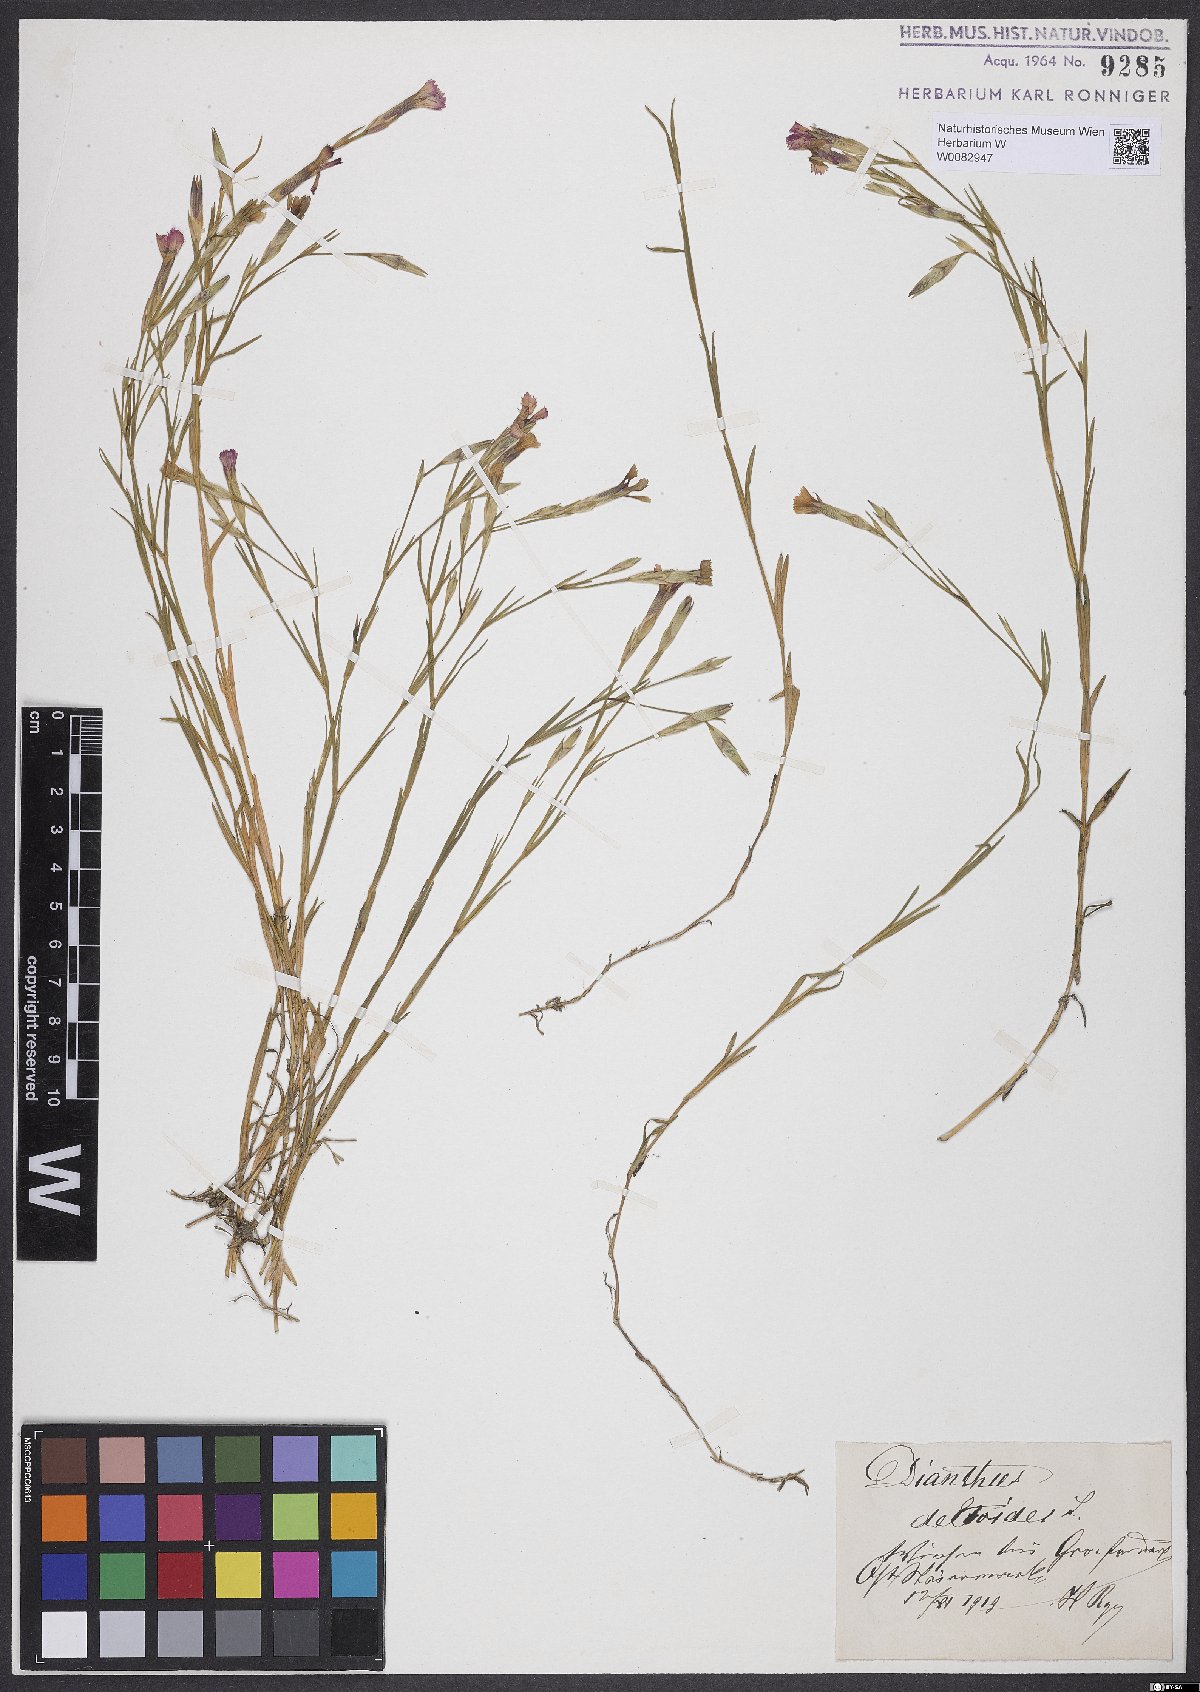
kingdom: Plantae
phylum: Tracheophyta
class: Magnoliopsida
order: Caryophyllales
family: Caryophyllaceae
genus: Dianthus
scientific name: Dianthus deltoides
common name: Maiden pink
